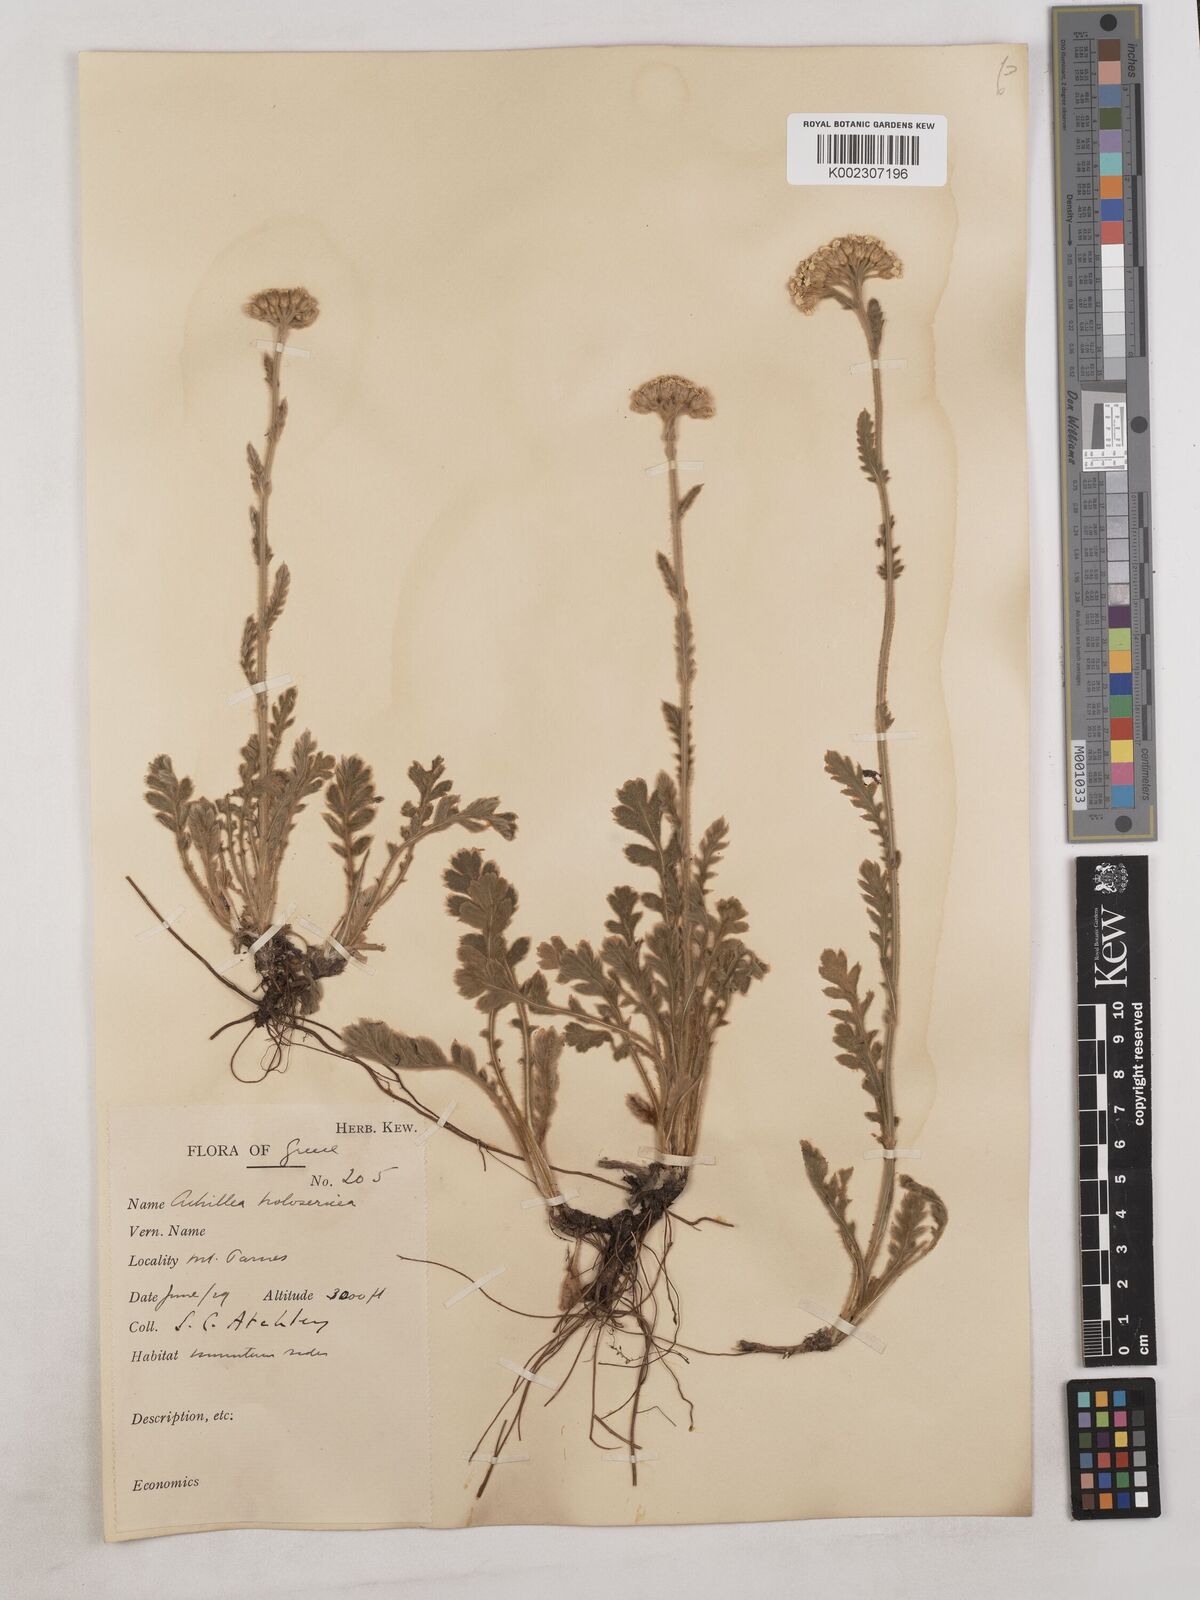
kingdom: Plantae
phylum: Tracheophyta
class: Magnoliopsida
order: Asterales
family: Asteraceae
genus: Achillea
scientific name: Achillea holosericea
